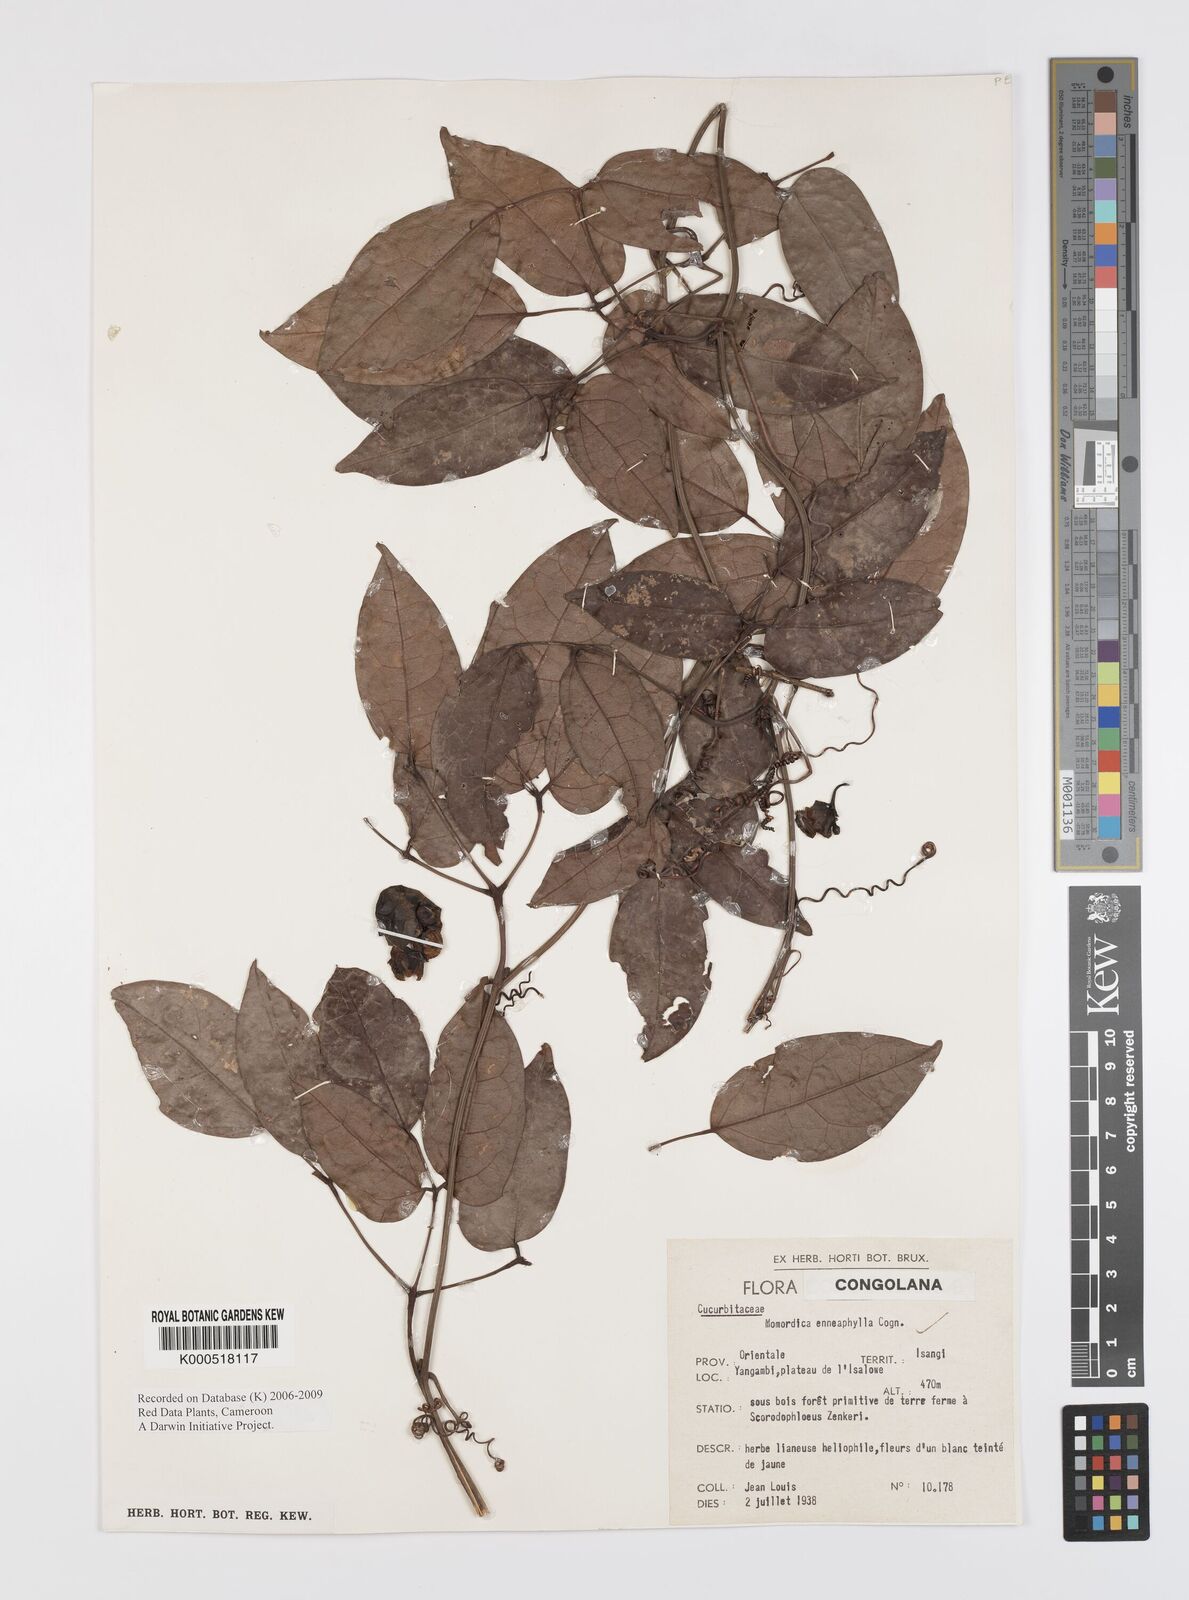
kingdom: Plantae
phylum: Tracheophyta
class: Magnoliopsida
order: Cucurbitales
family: Cucurbitaceae
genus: Momordica
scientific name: Momordica enneaphylla
